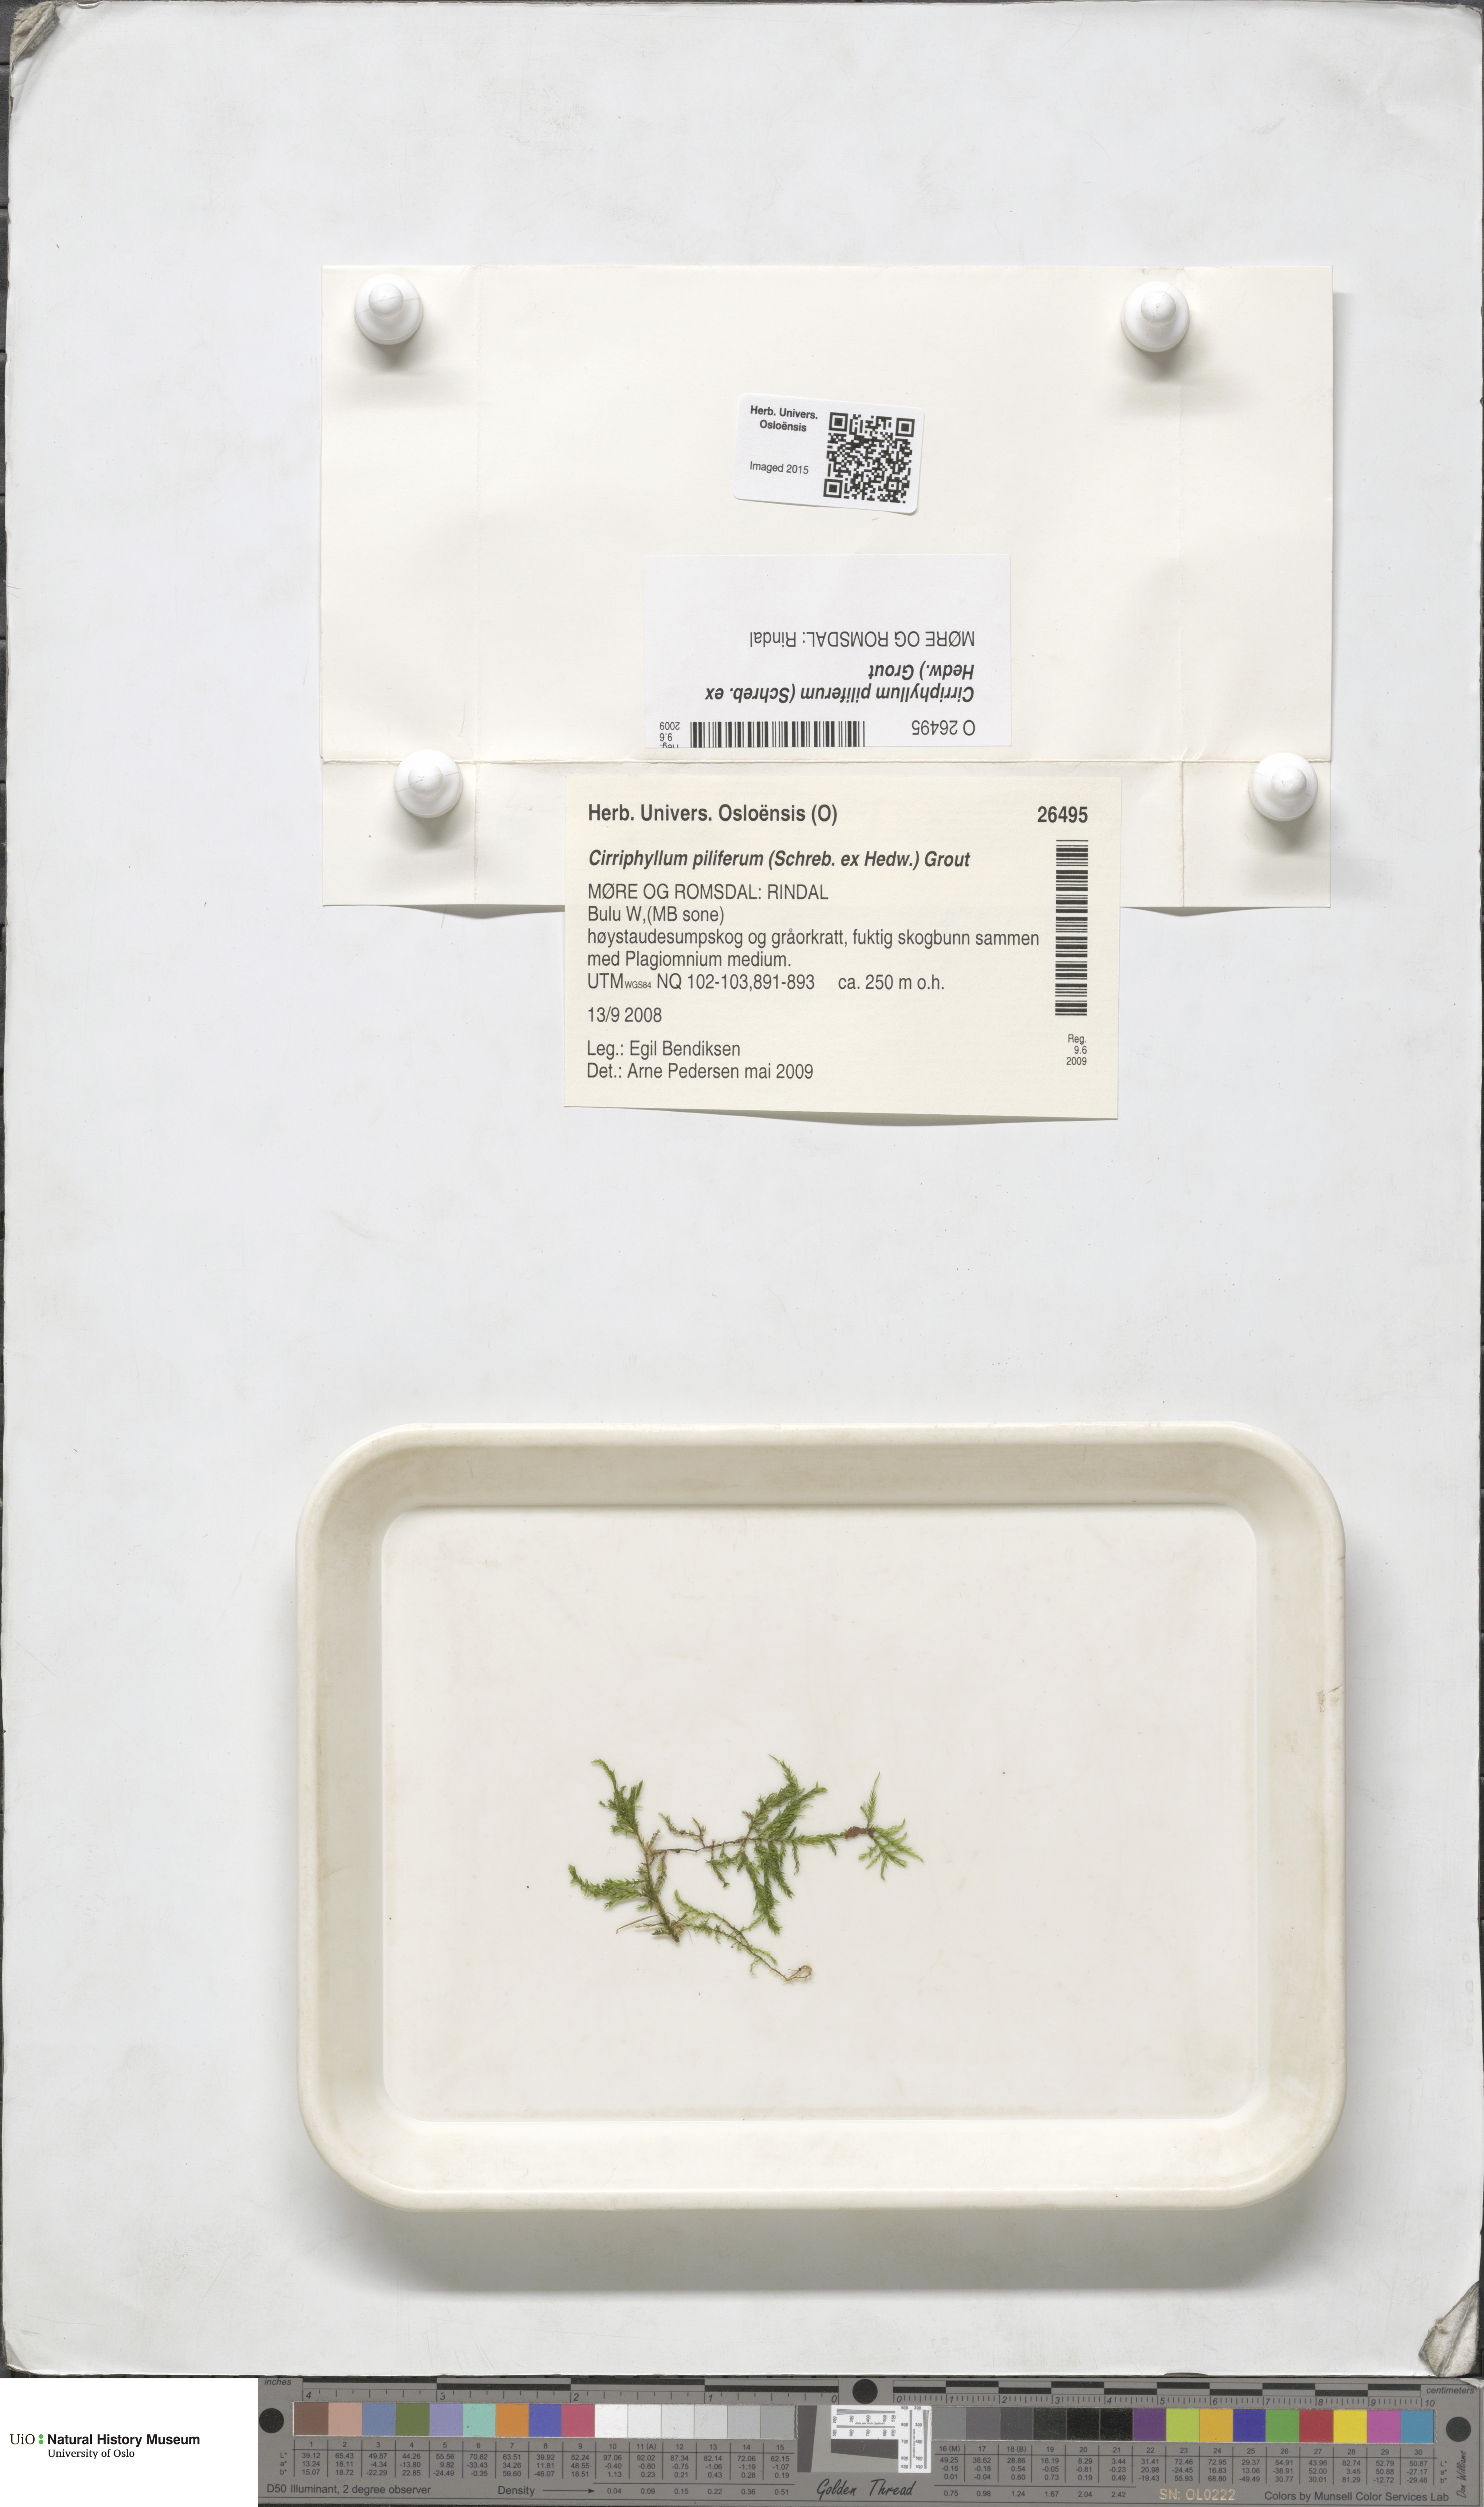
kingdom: Plantae
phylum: Bryophyta
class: Bryopsida
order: Hypnales
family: Brachytheciaceae
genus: Cirriphyllum
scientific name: Cirriphyllum piliferum
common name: Hair-pointed moss
